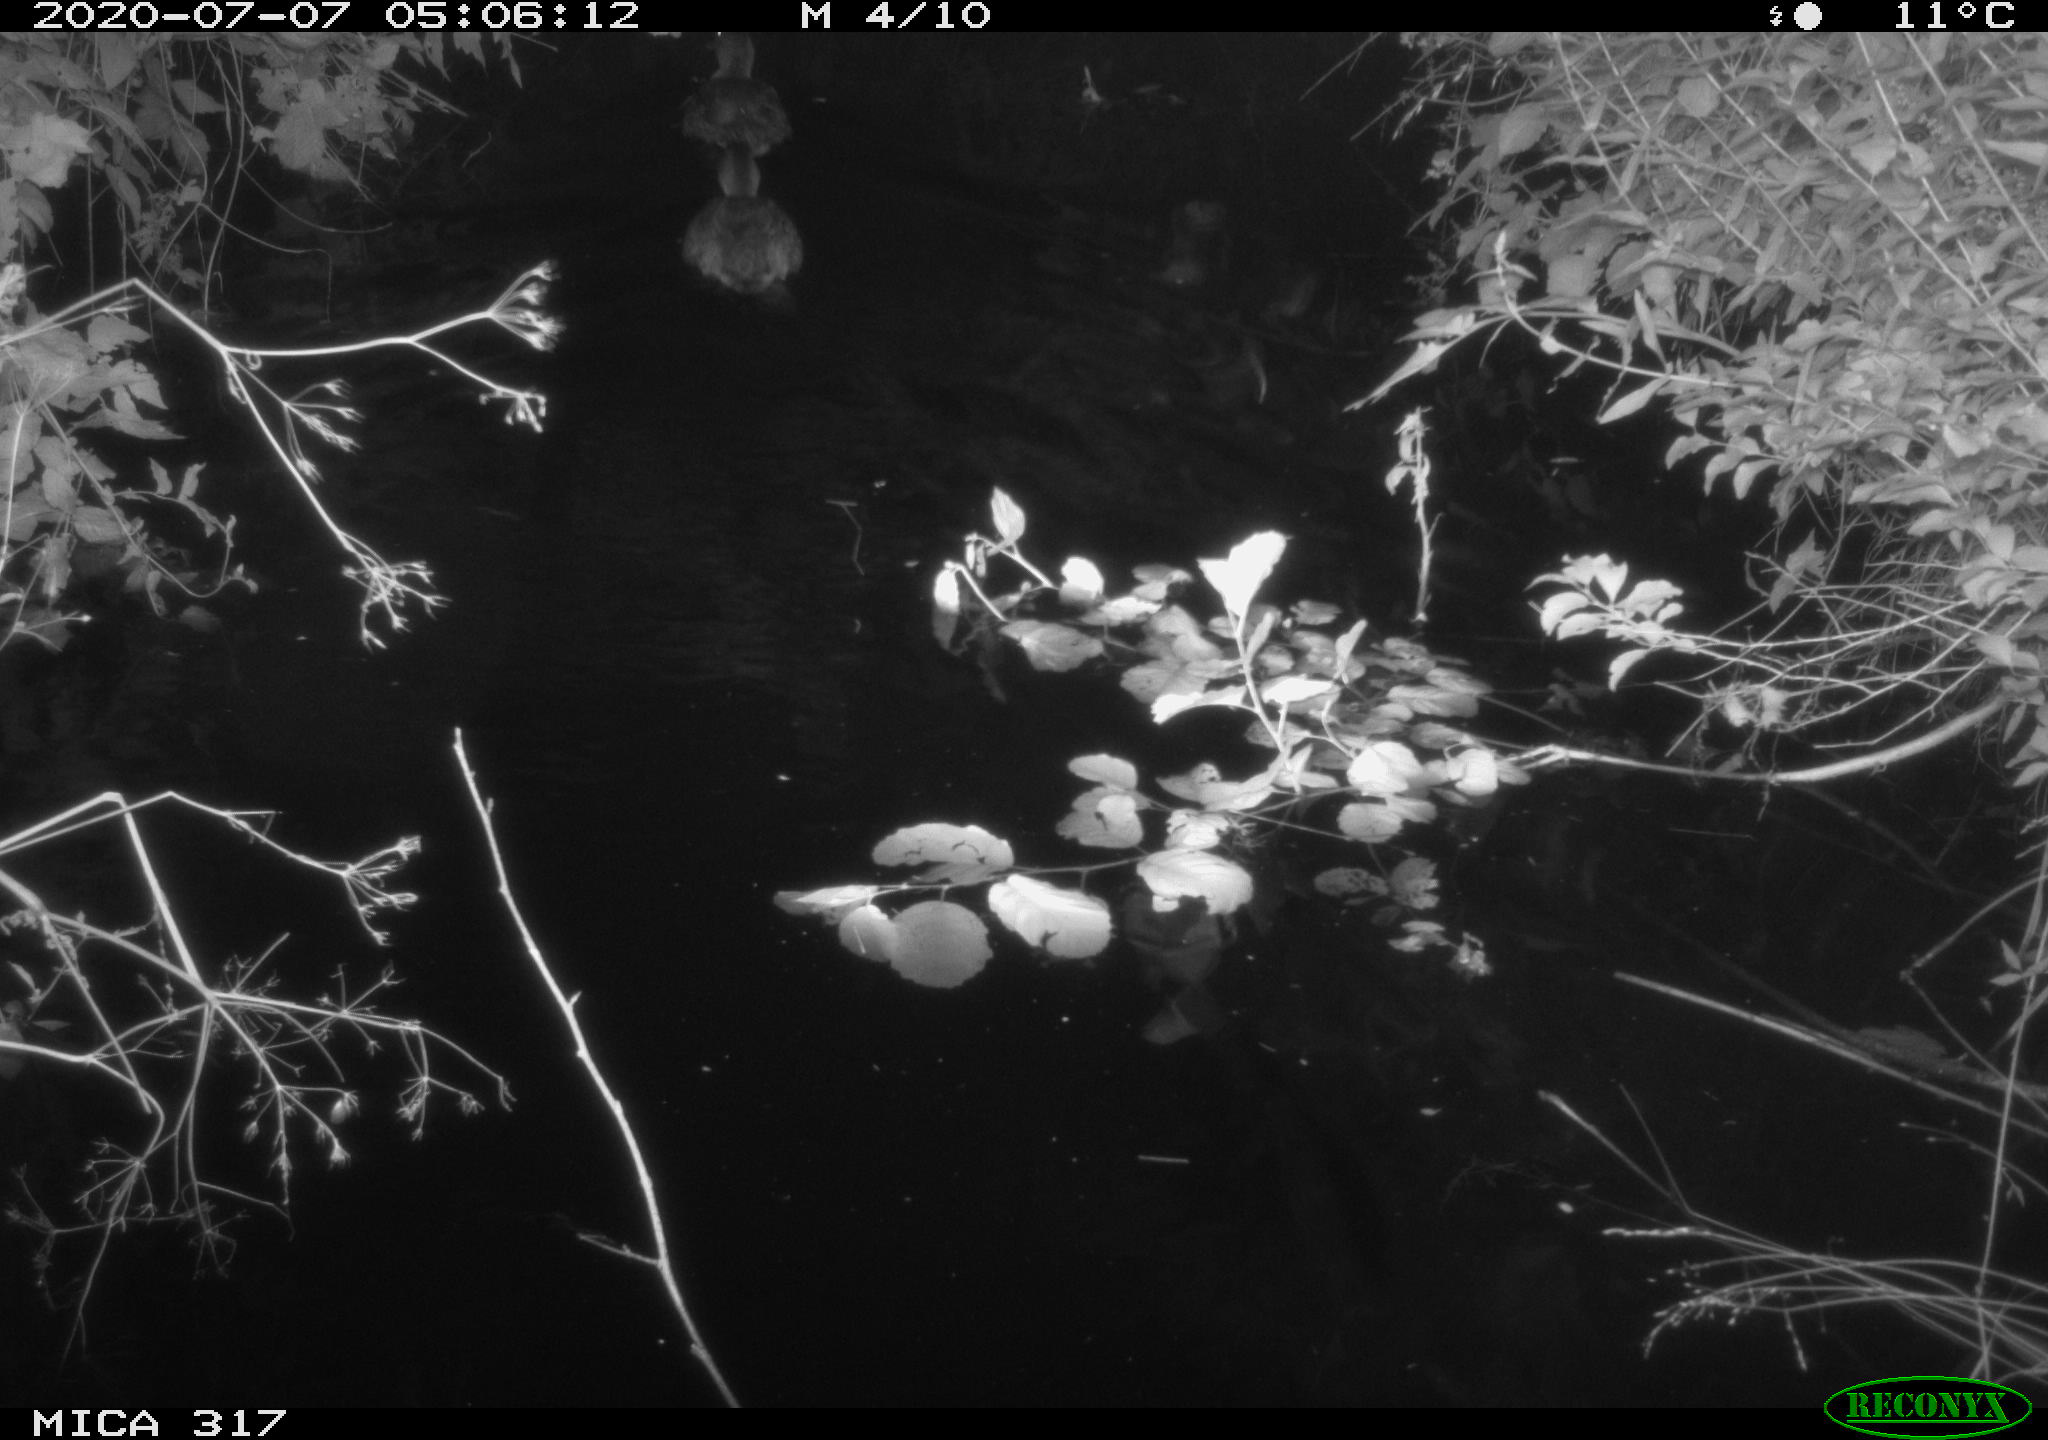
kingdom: Animalia
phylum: Chordata
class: Aves
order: Anseriformes
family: Anatidae
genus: Aix
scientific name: Aix galericulata
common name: Mandarin duck
